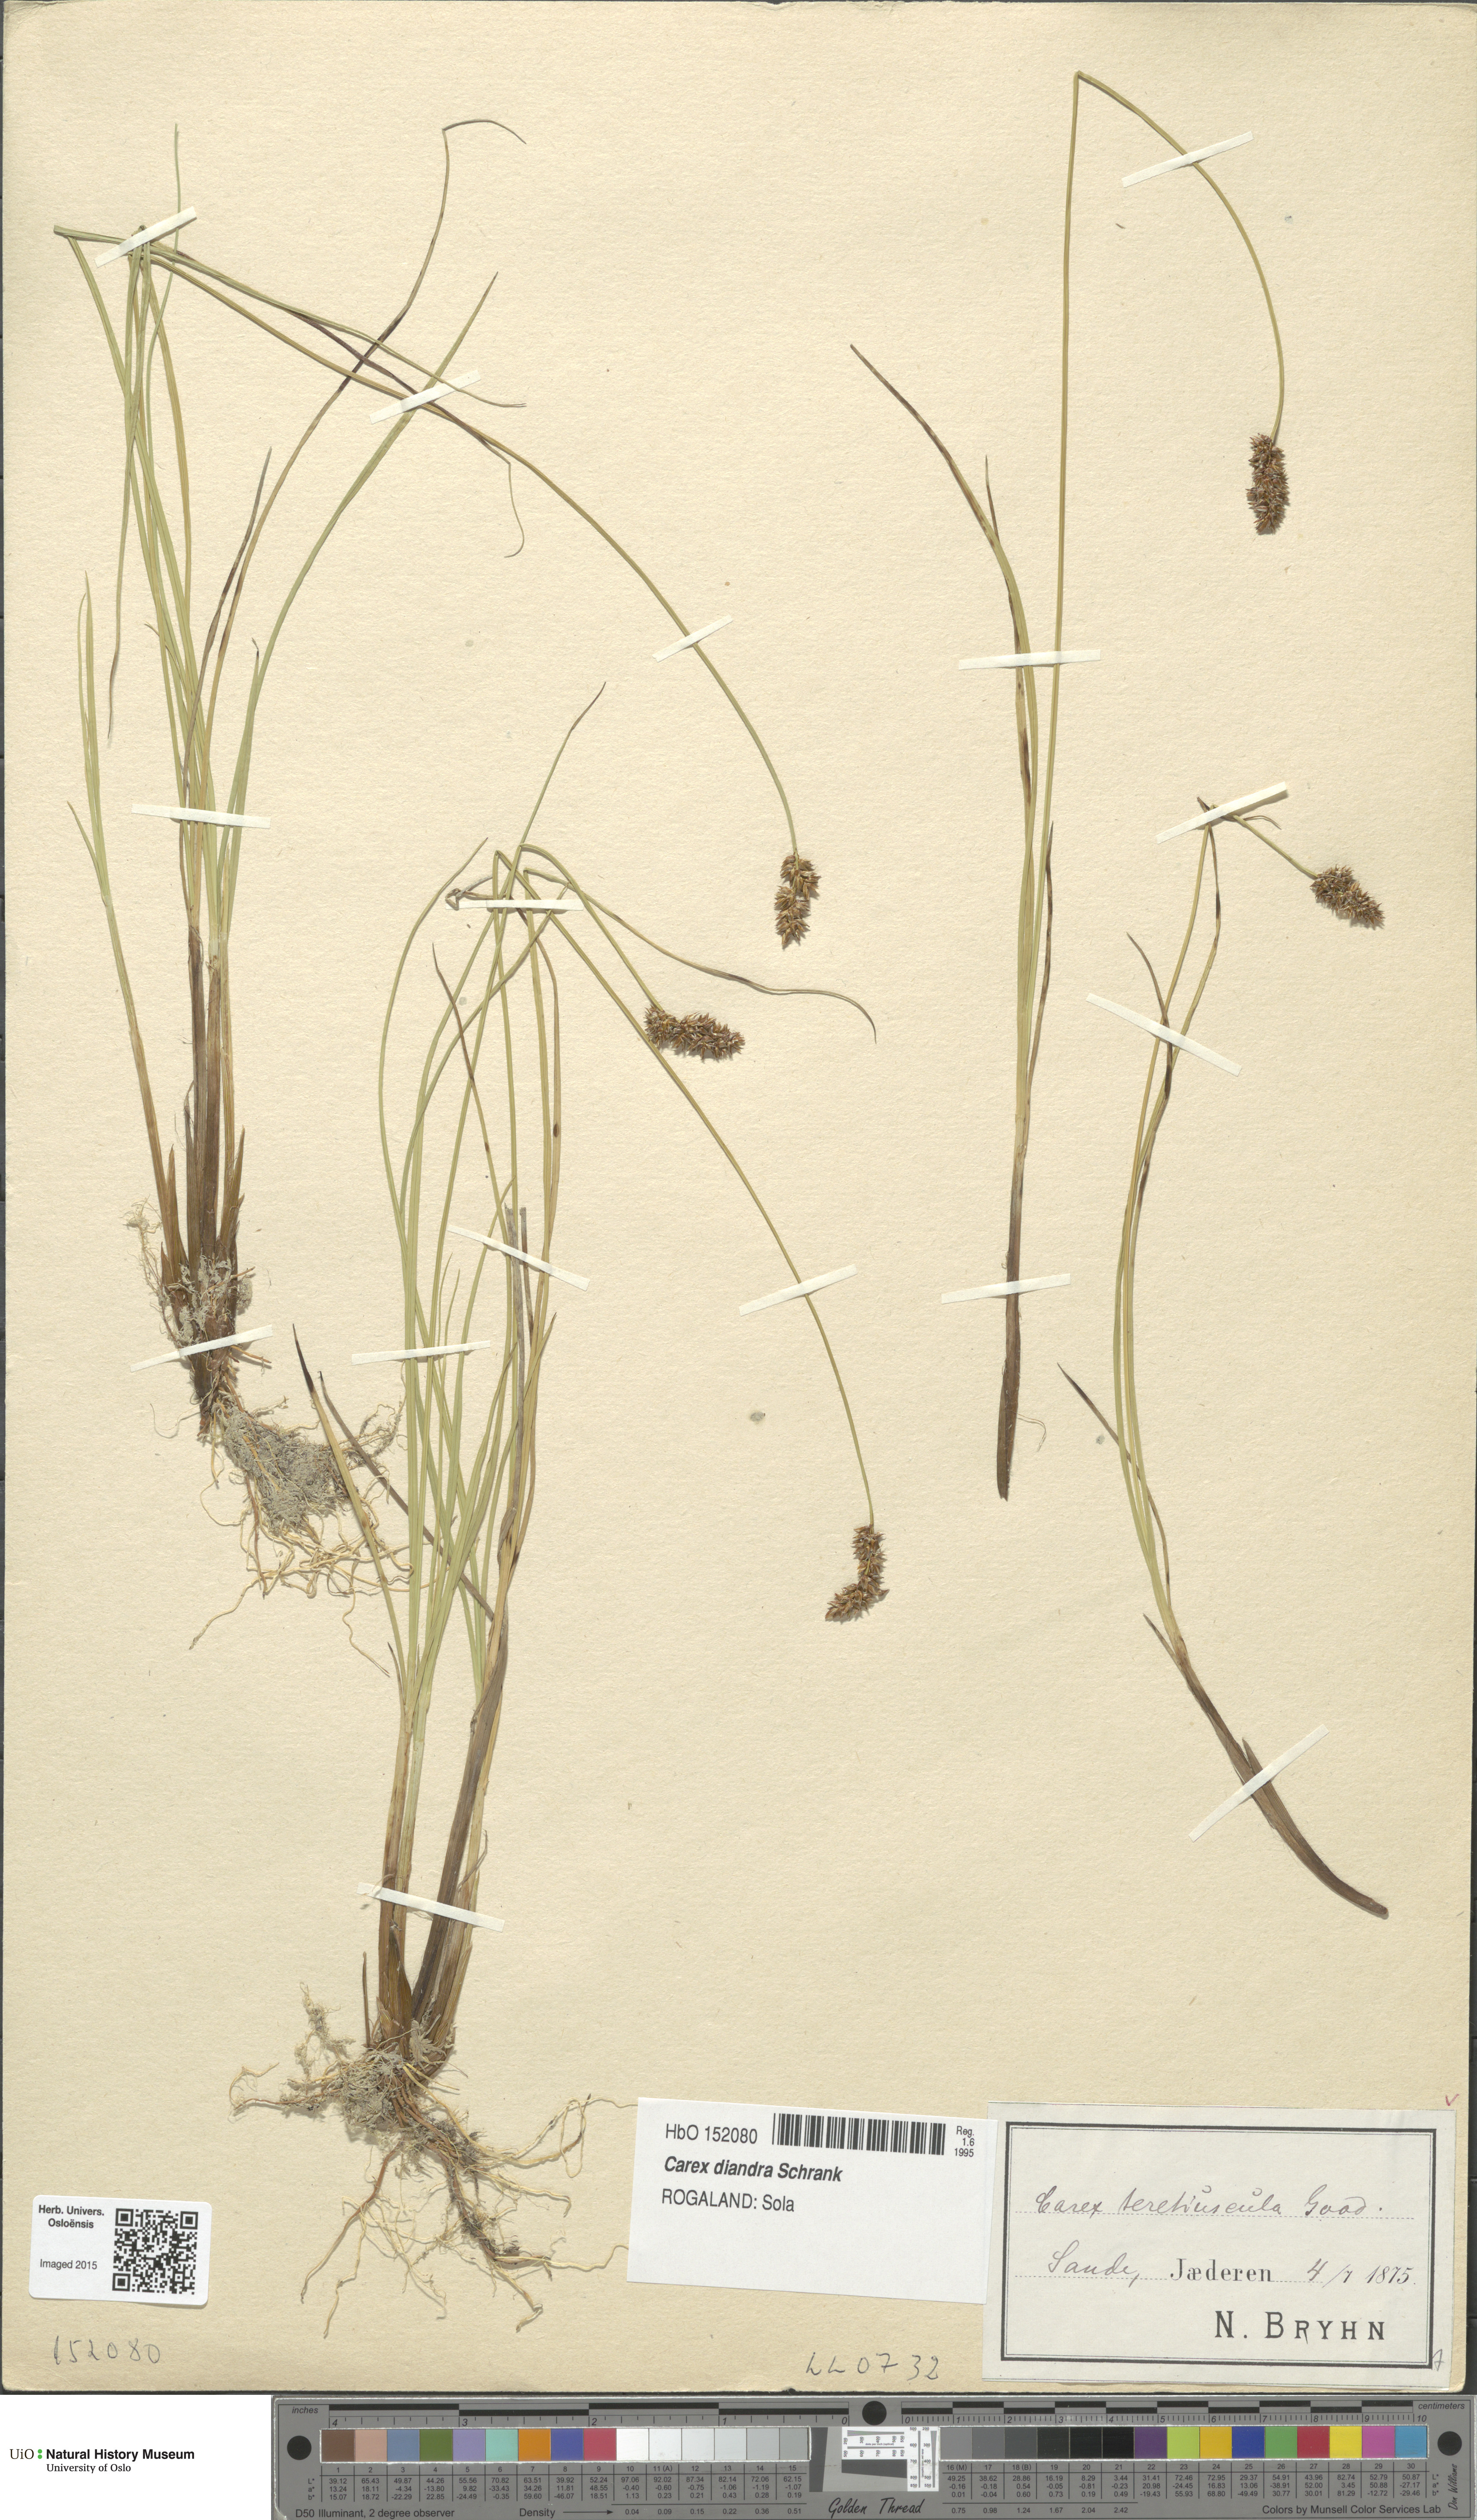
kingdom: Plantae
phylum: Tracheophyta
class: Liliopsida
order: Poales
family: Cyperaceae
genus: Carex
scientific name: Carex diandra
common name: Lesser tussock-sedge
